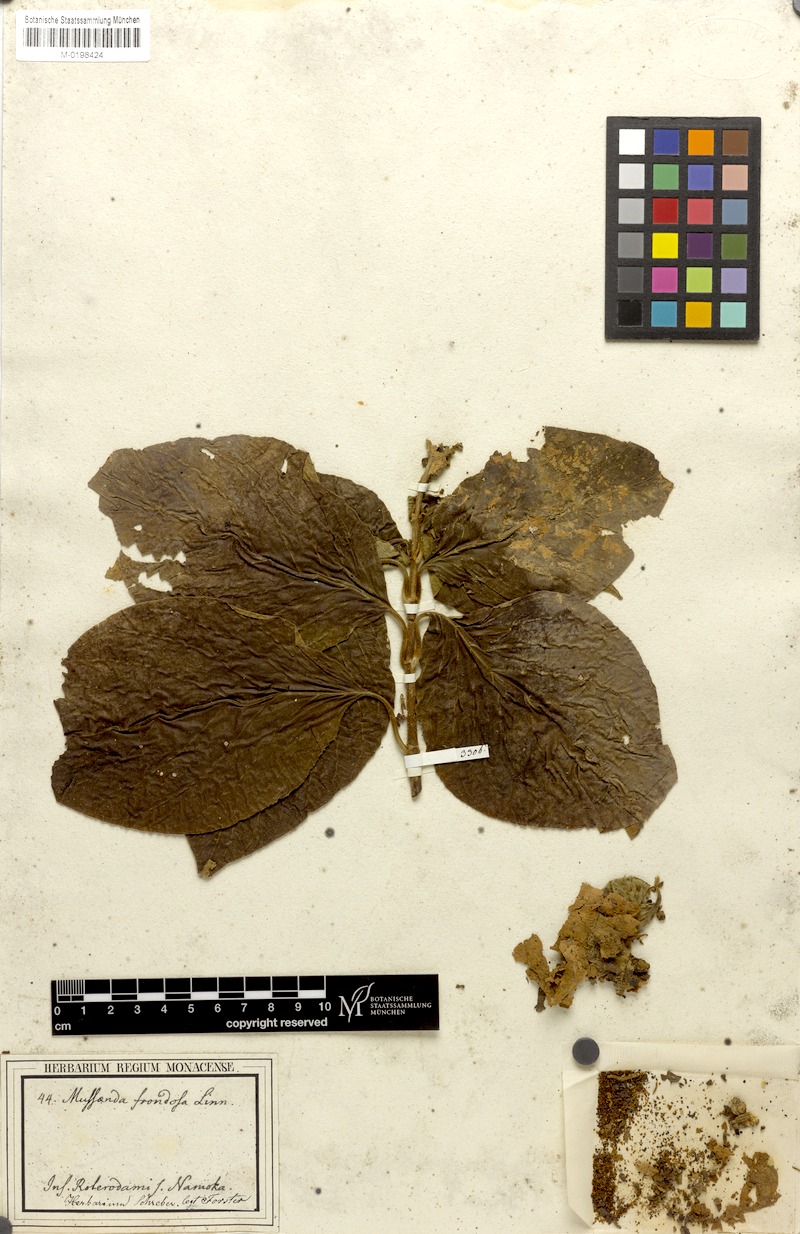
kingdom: Plantae
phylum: Tracheophyta
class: Magnoliopsida
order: Gentianales
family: Rubiaceae
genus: Mussaenda
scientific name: Mussaenda frondosa
